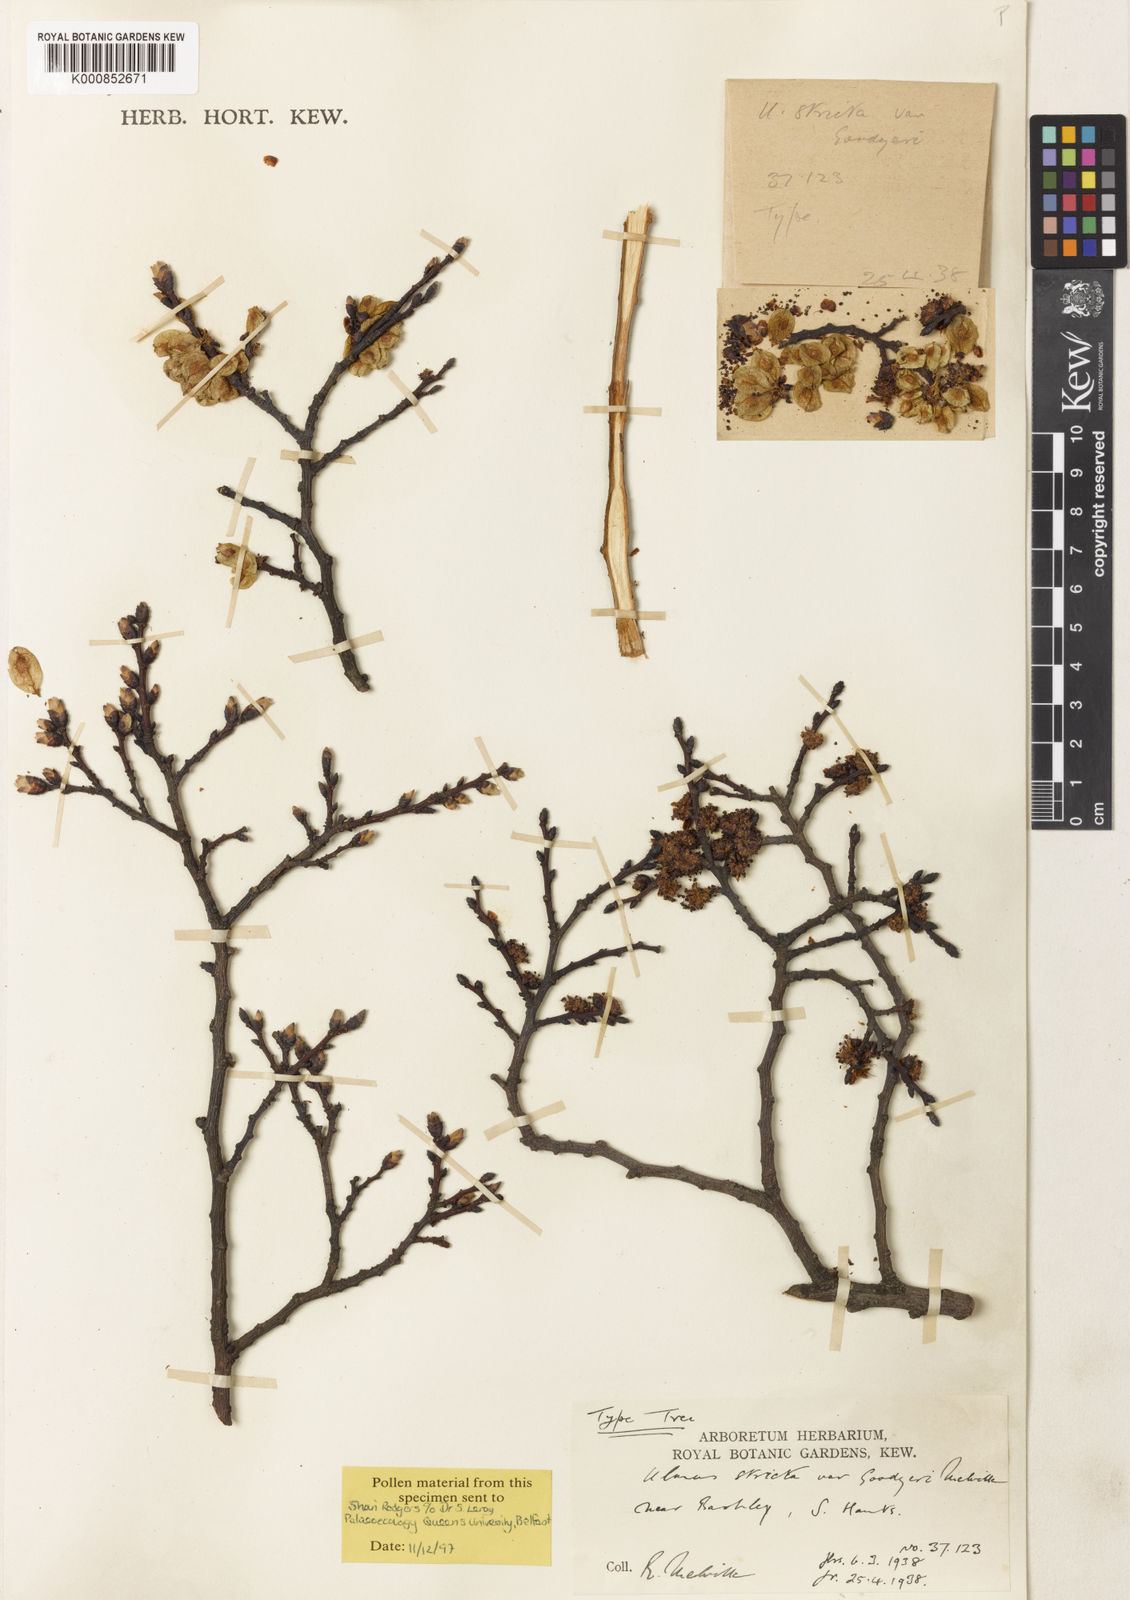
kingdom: Plantae
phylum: Tracheophyta
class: Magnoliopsida
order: Rosales
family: Ulmaceae
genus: Ulmus
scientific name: Ulmus
